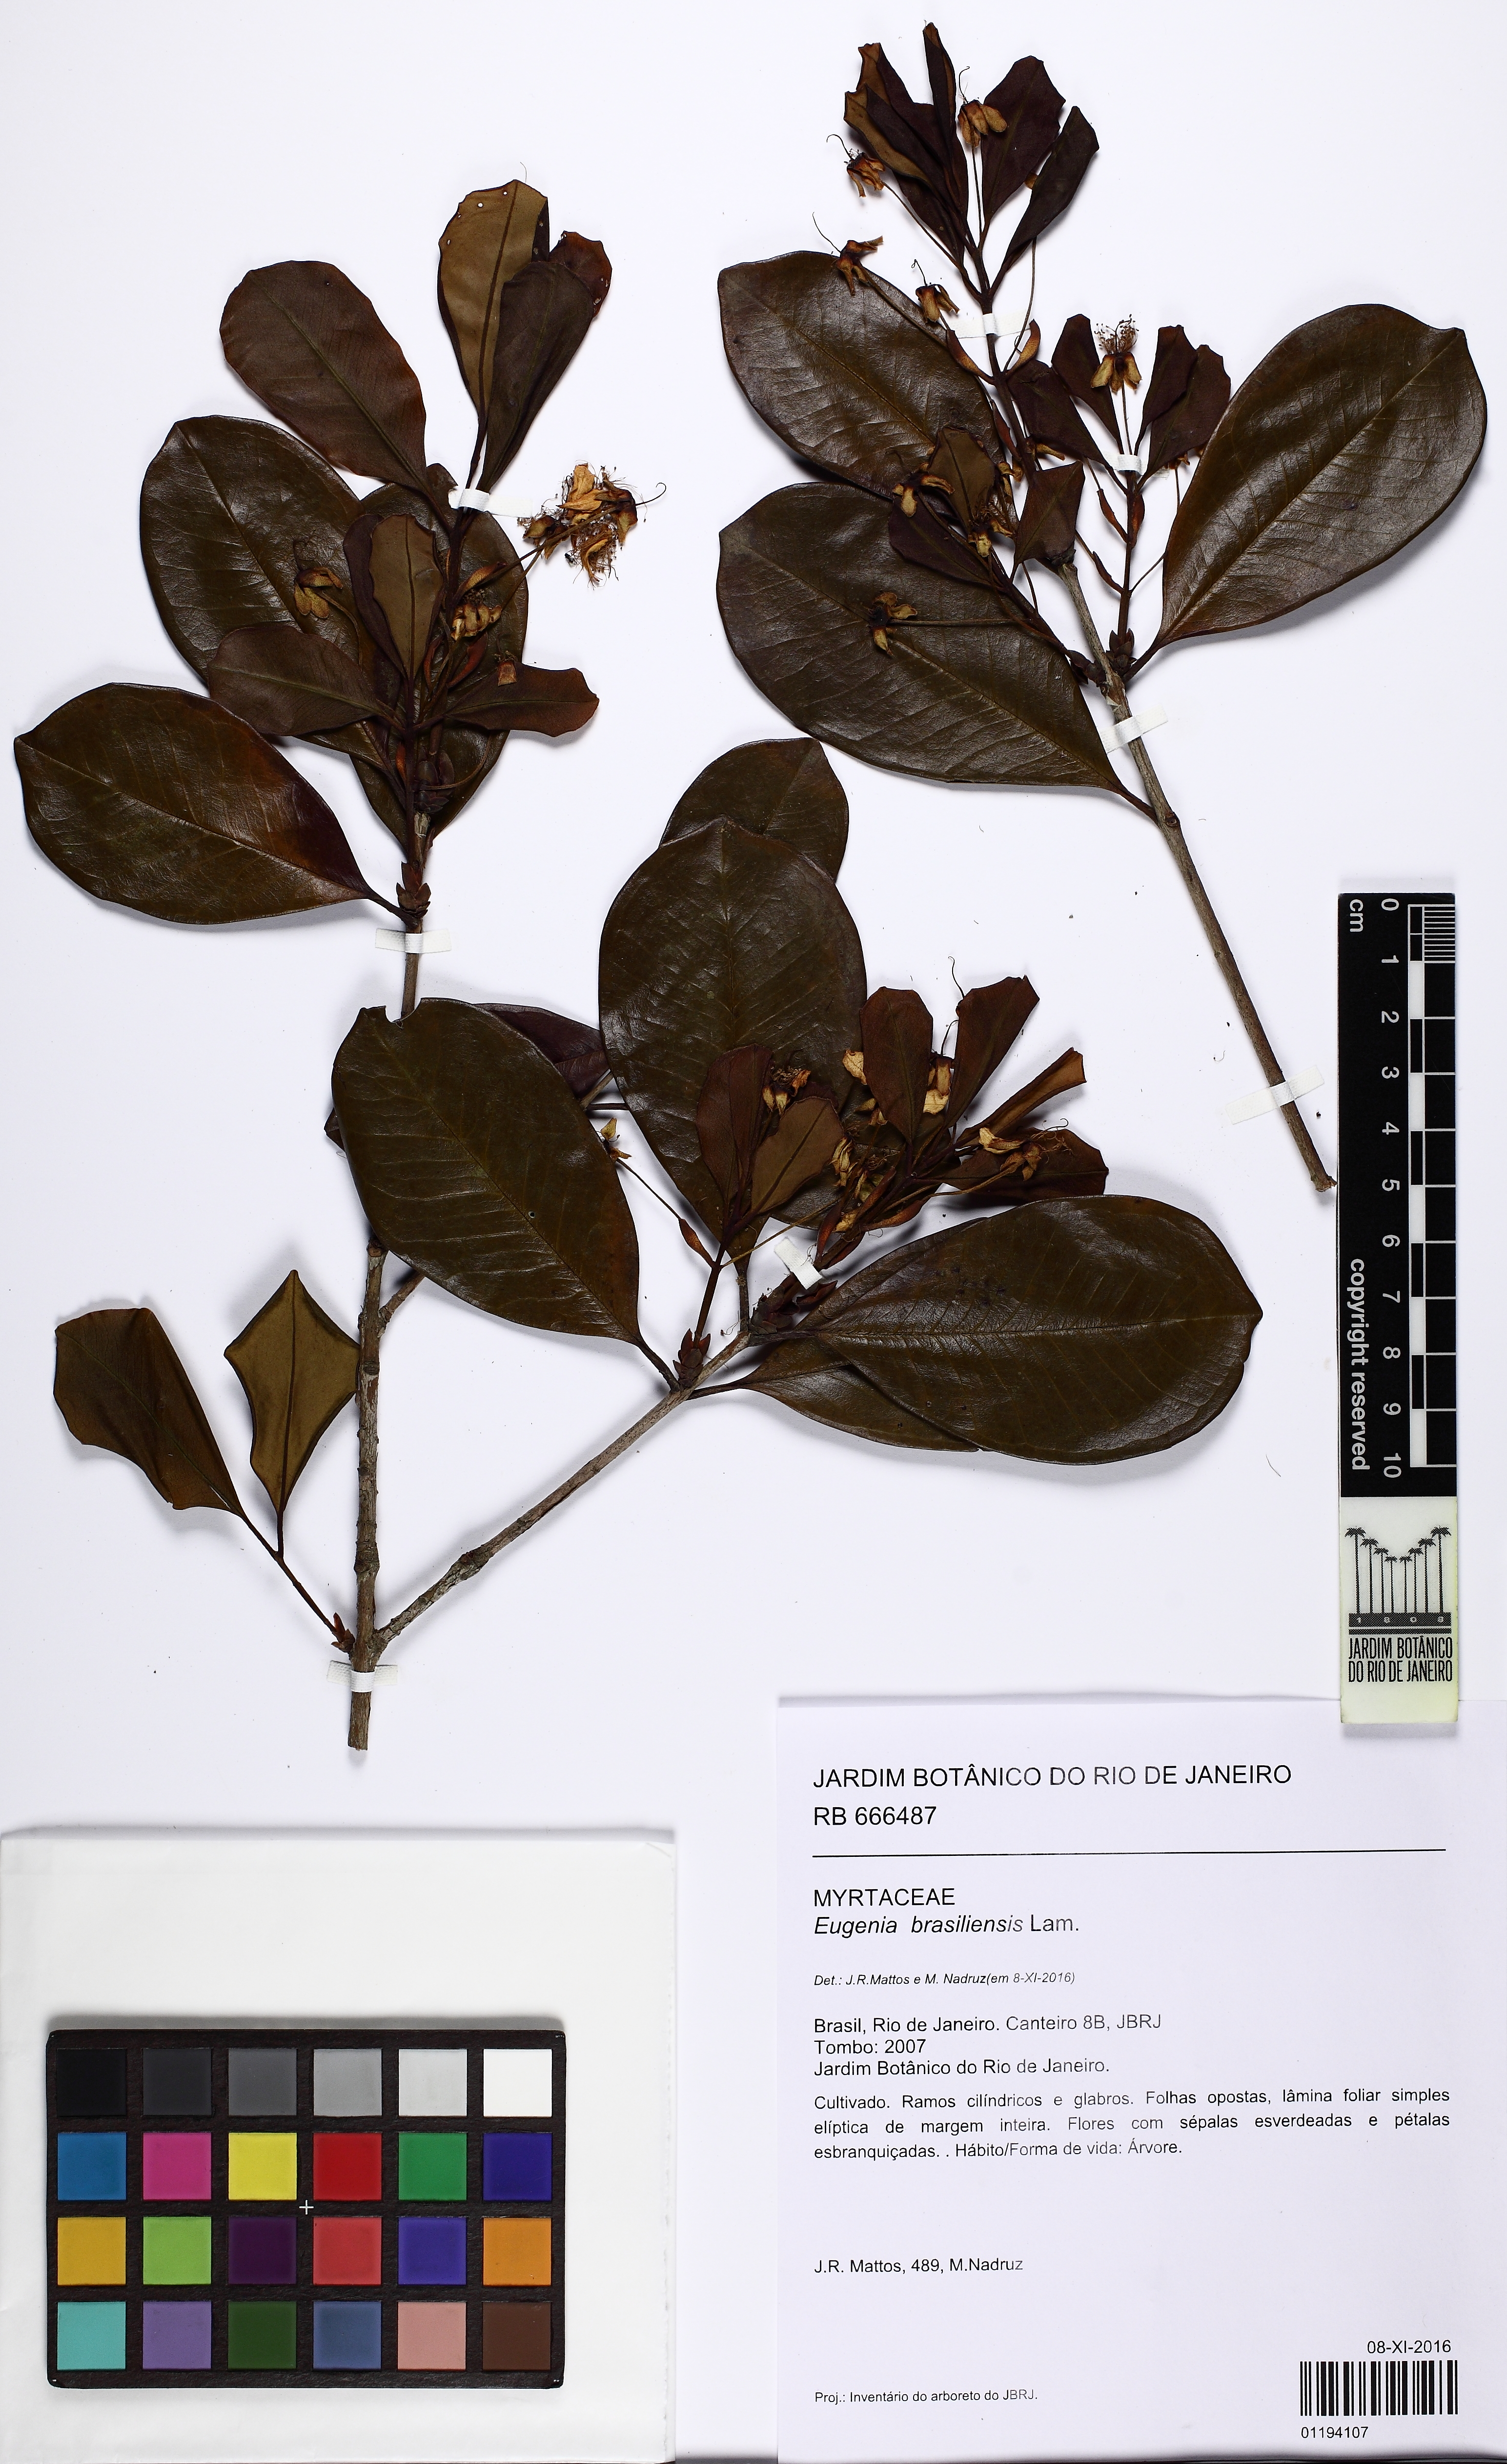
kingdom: Plantae
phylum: Tracheophyta
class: Magnoliopsida
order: Myrtales
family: Myrtaceae
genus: Eugenia
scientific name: Eugenia brasiliensis
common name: Grumichama
